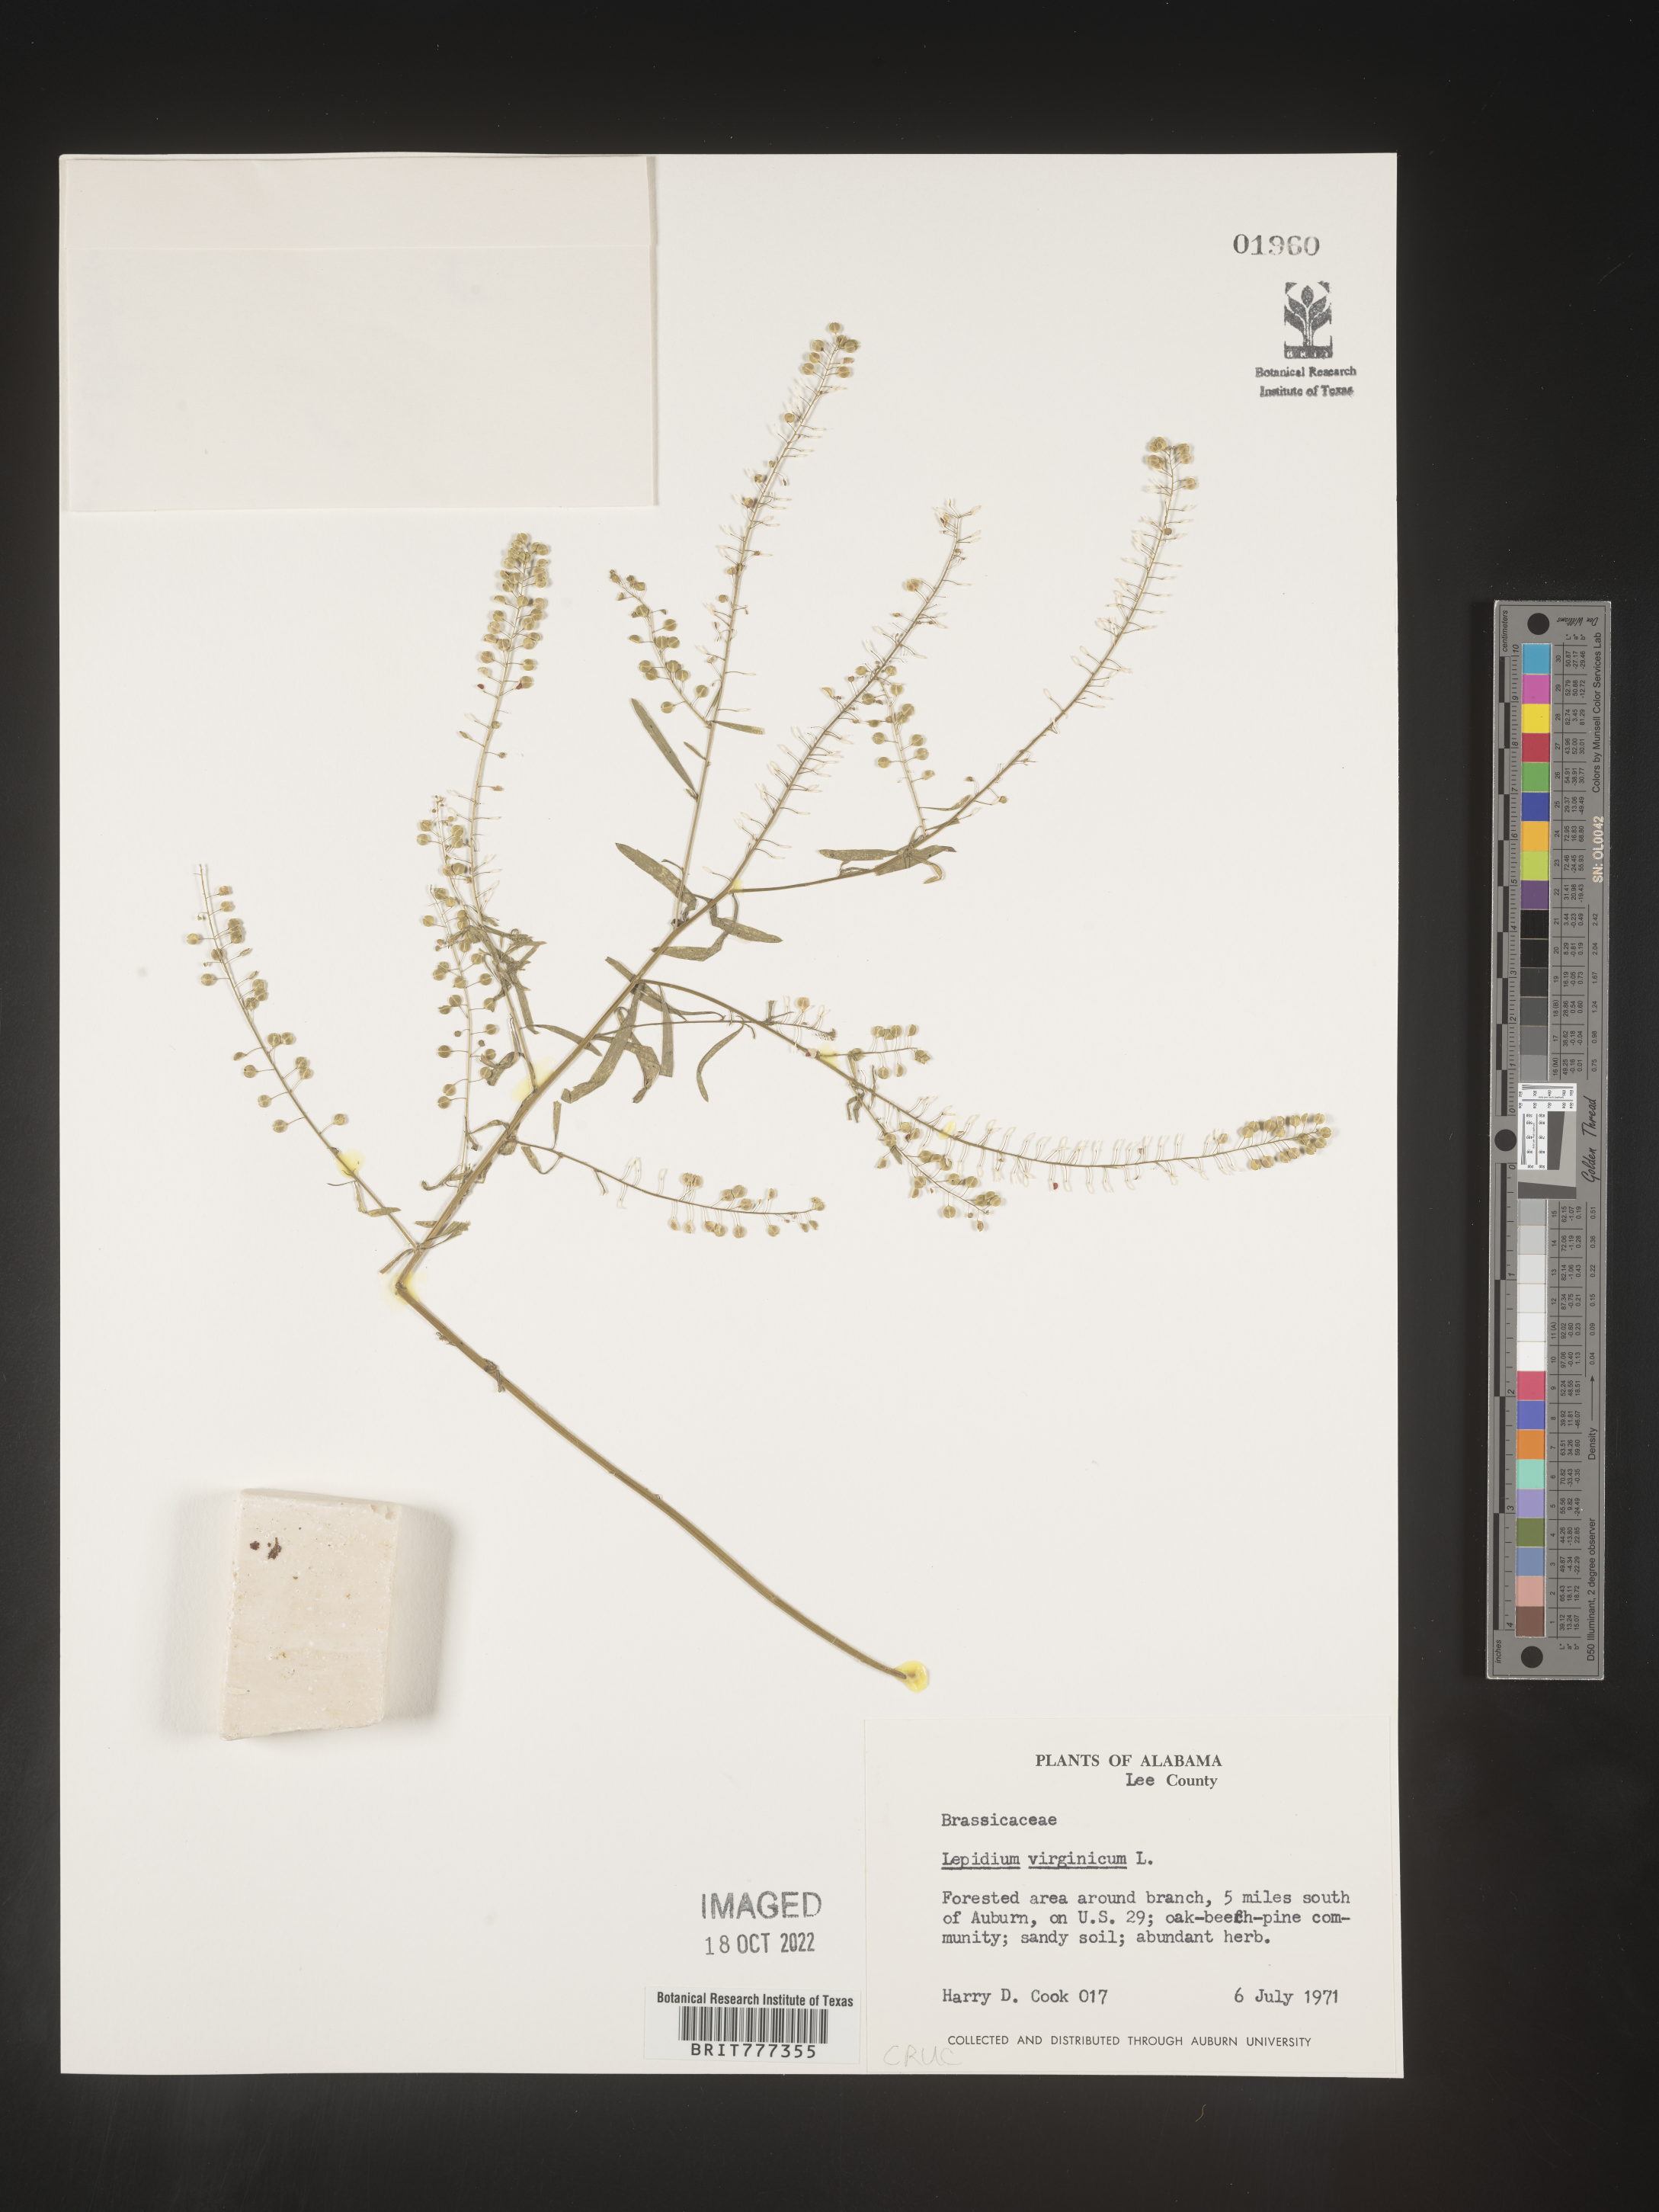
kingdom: Plantae
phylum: Tracheophyta
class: Magnoliopsida
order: Brassicales
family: Brassicaceae
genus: Lepidium
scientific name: Lepidium virginicum
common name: Least pepperwort
